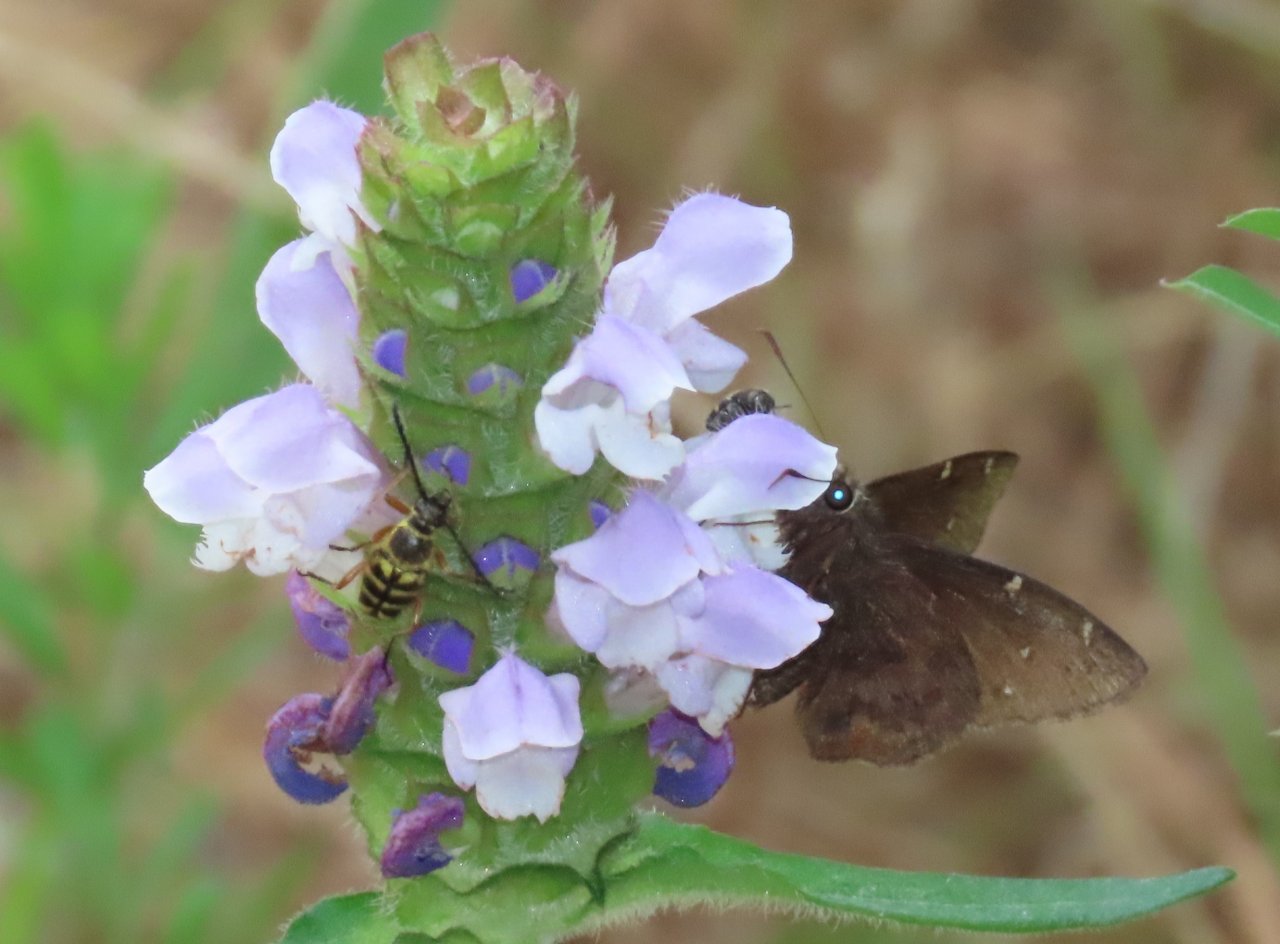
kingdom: Animalia
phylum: Arthropoda
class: Insecta
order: Lepidoptera
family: Hesperiidae
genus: Autochton
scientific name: Autochton
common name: Northern Cloudywing
